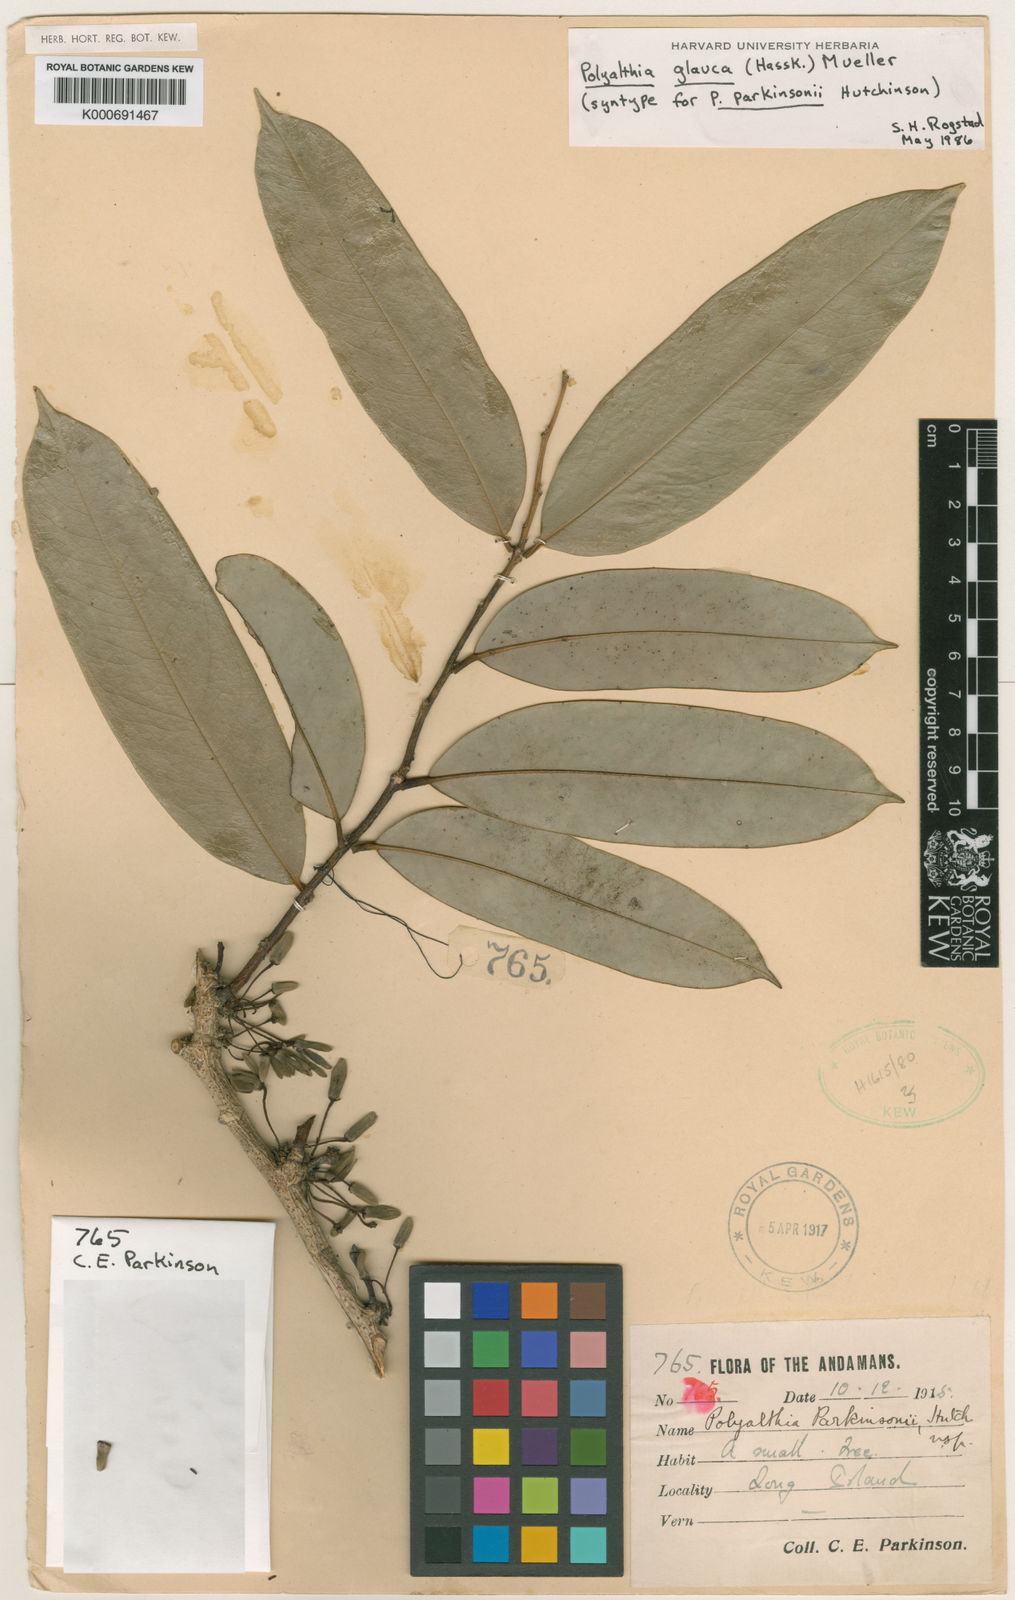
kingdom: Plantae
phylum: Tracheophyta
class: Magnoliopsida
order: Magnoliales
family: Annonaceae
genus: Maasia
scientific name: Maasia glauca
